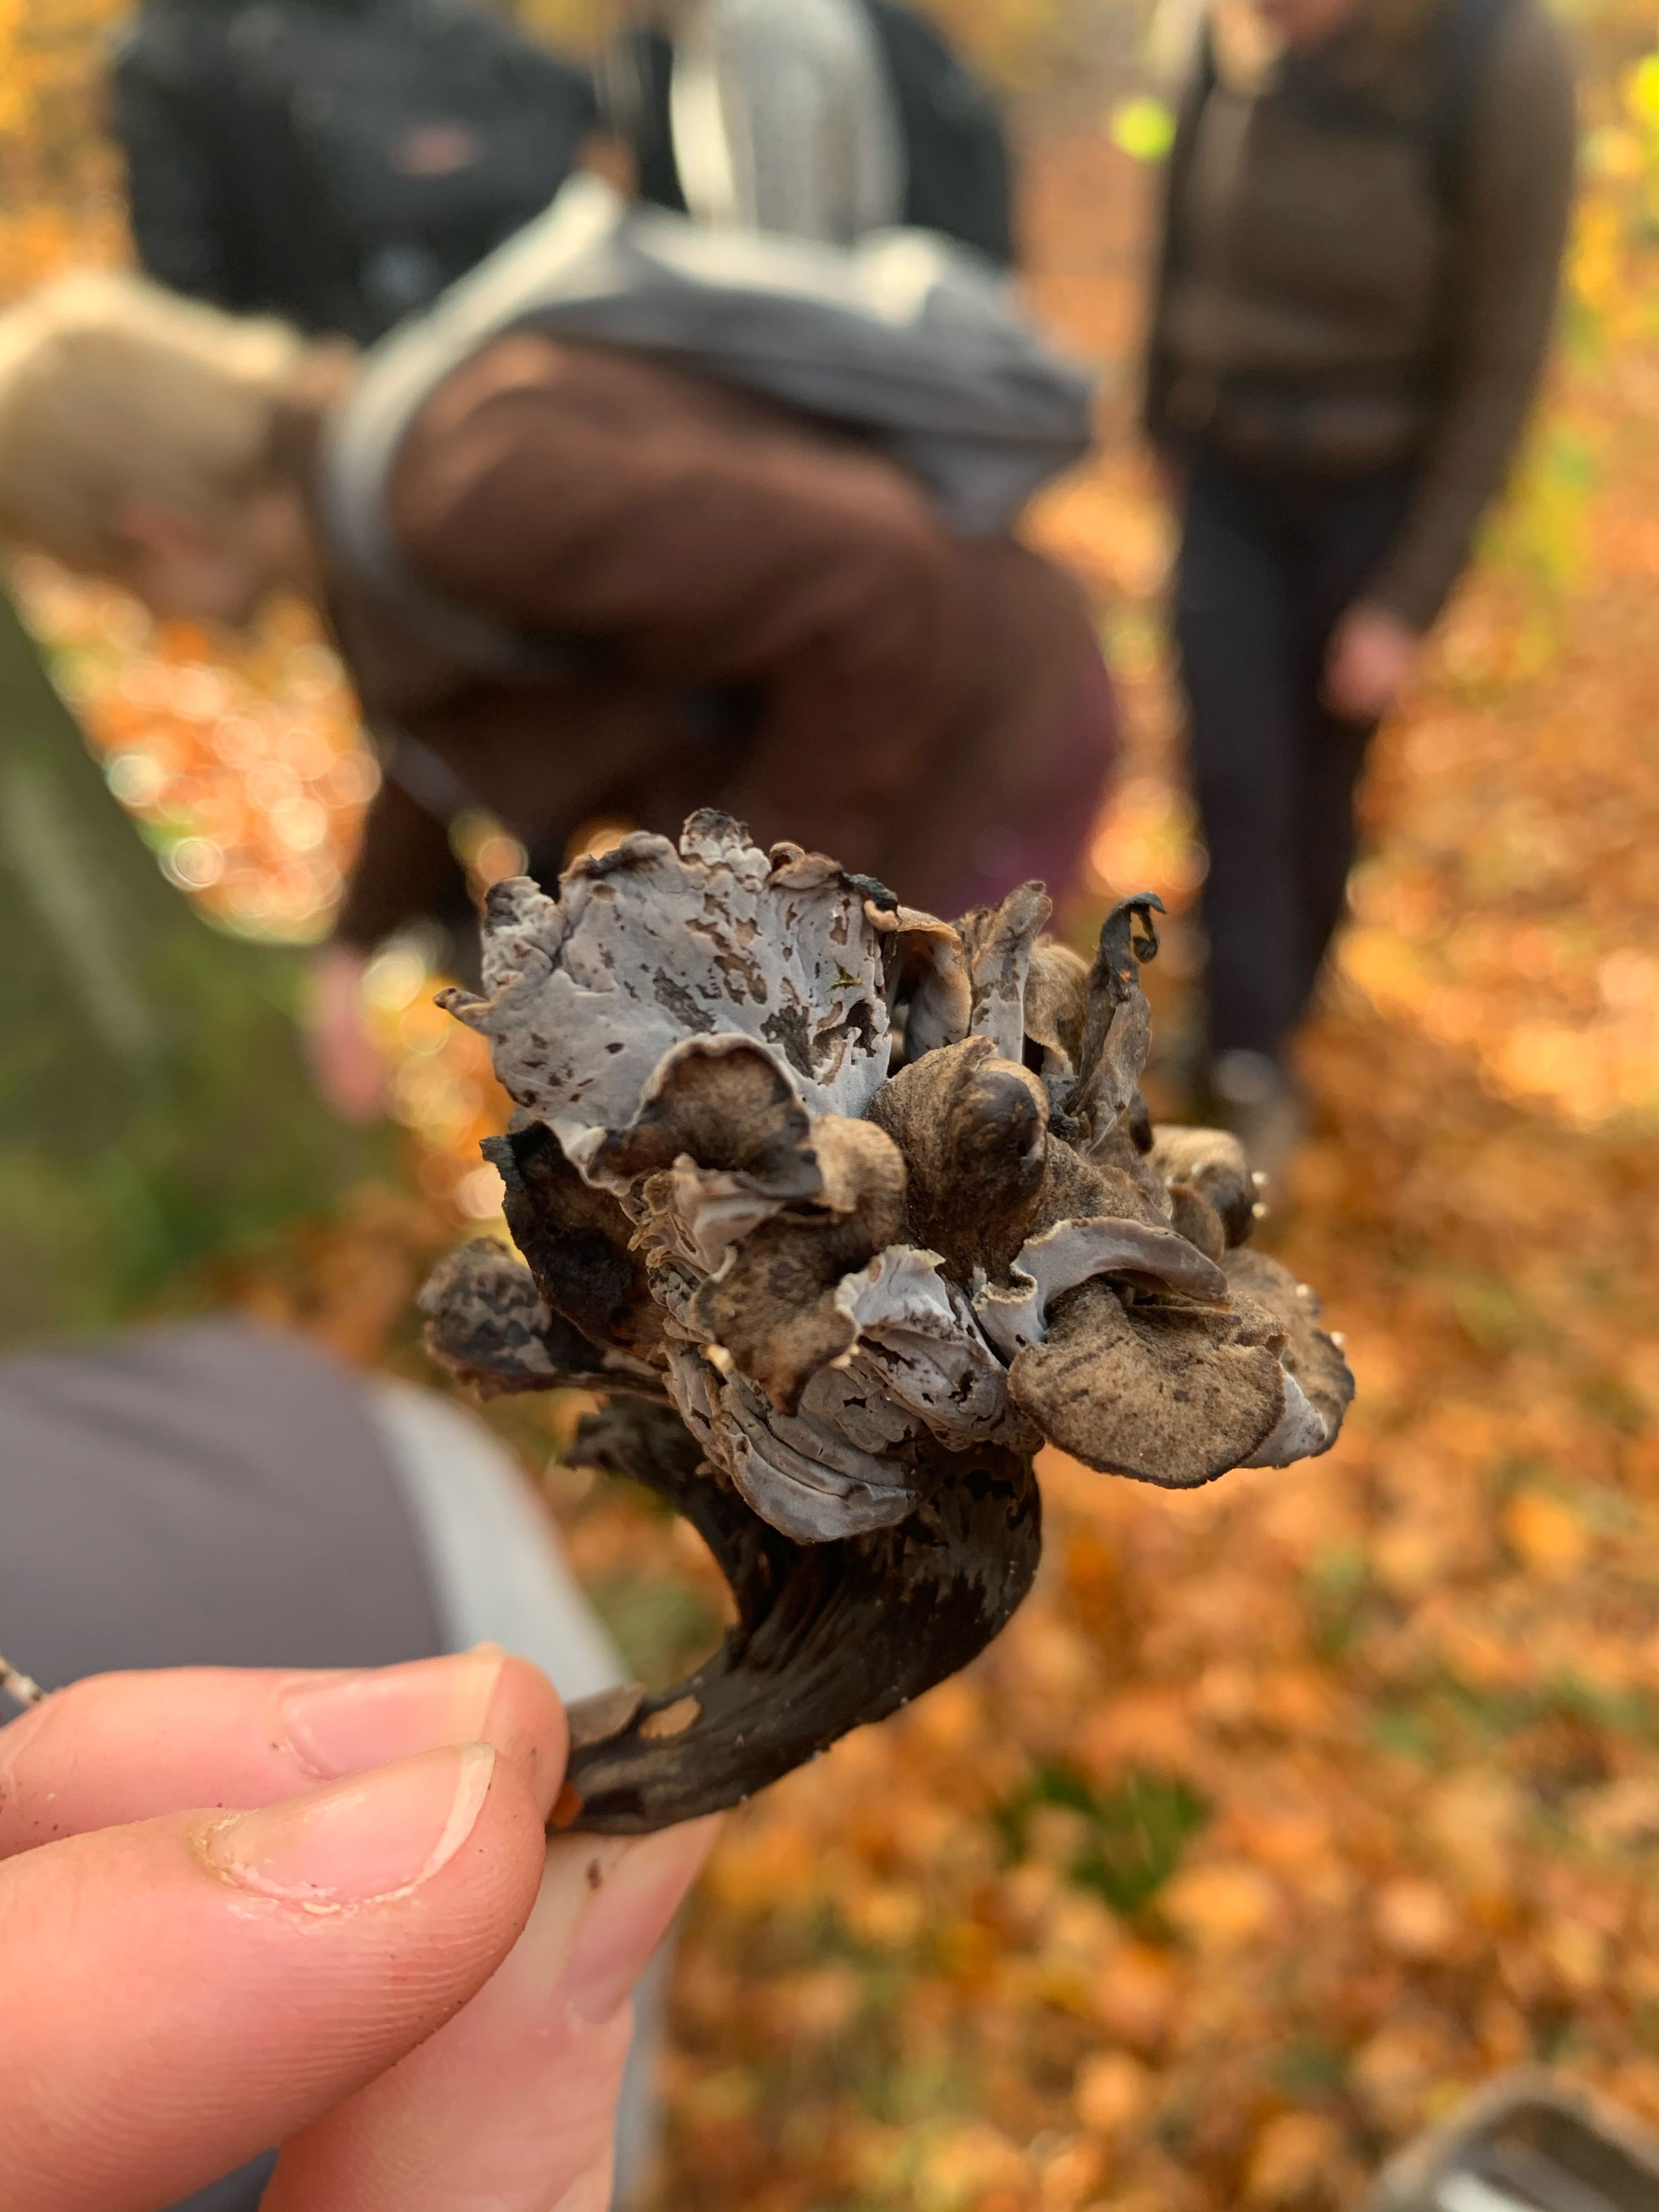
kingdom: Fungi
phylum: Basidiomycota
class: Agaricomycetes
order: Cantharellales
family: Hydnaceae
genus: Craterellus
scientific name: Craterellus cornucopioides
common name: trompetsvamp
